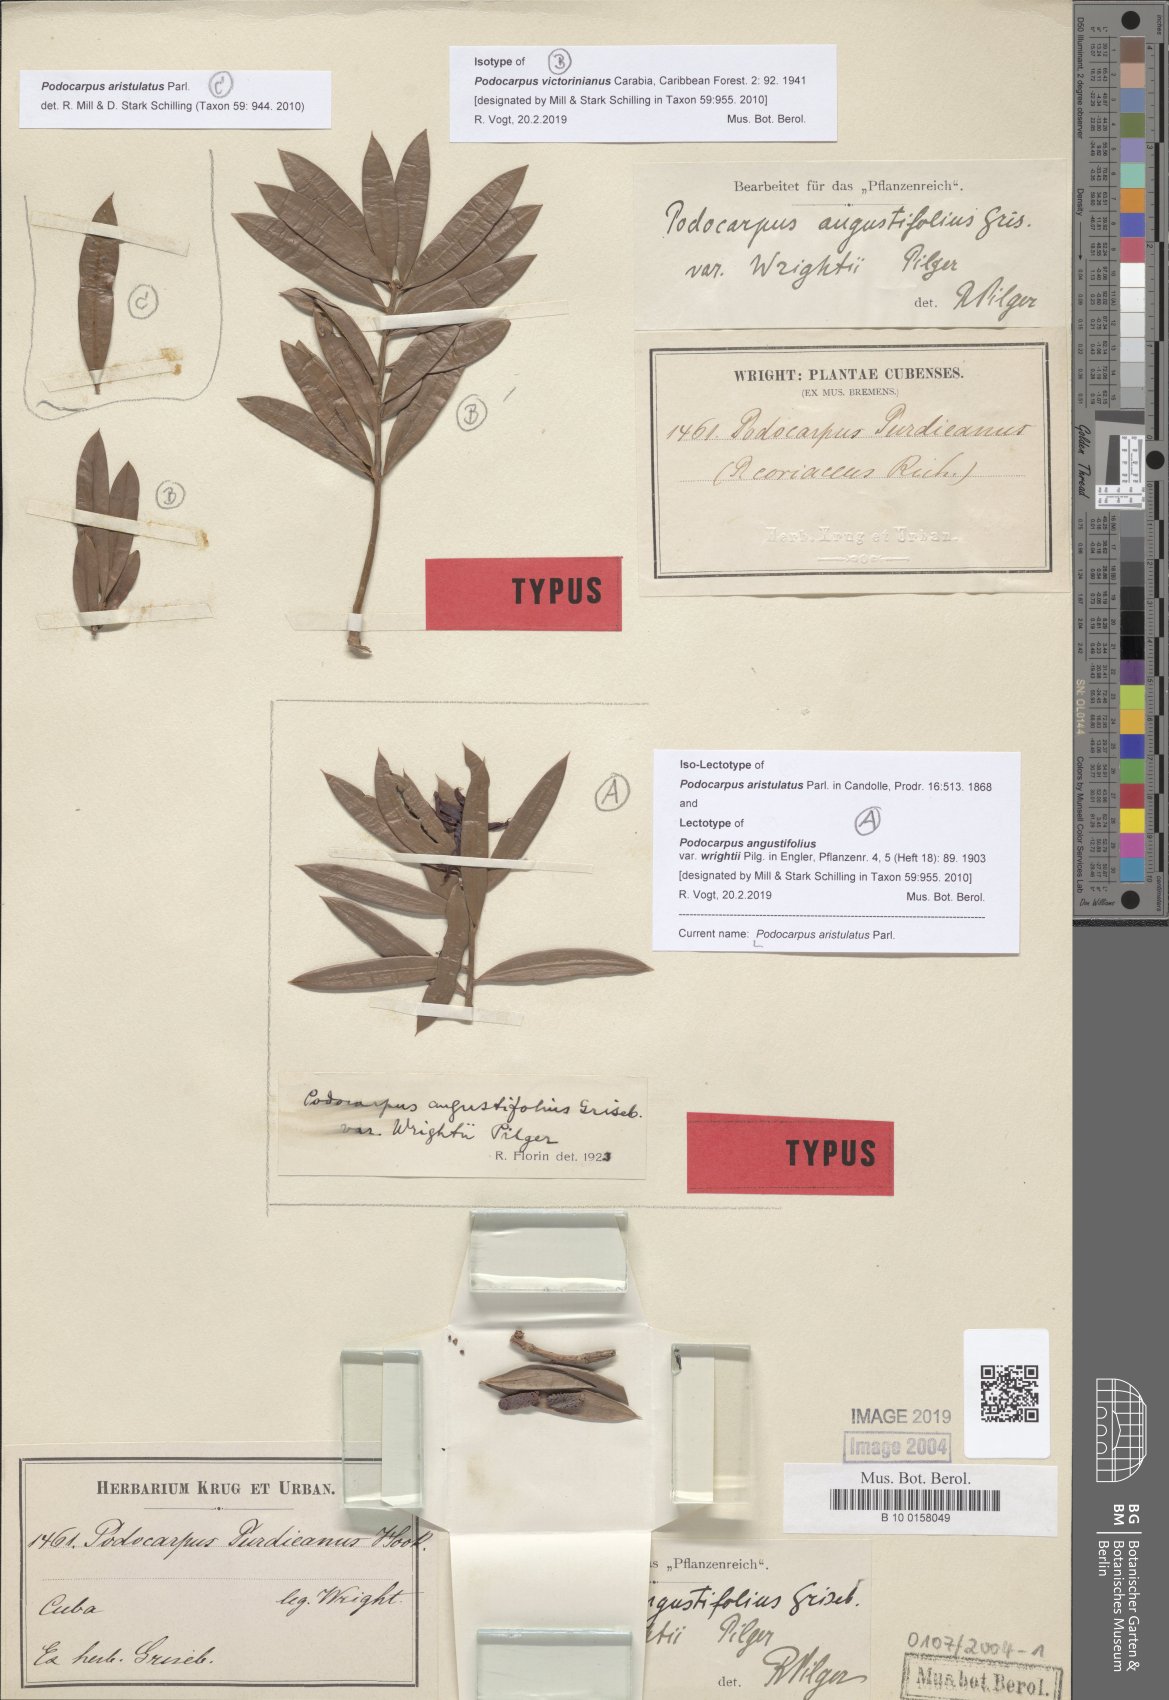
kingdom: Plantae
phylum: Tracheophyta
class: Pinopsida
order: Pinales
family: Podocarpaceae
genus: Podocarpus
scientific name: Podocarpus angustifolius
